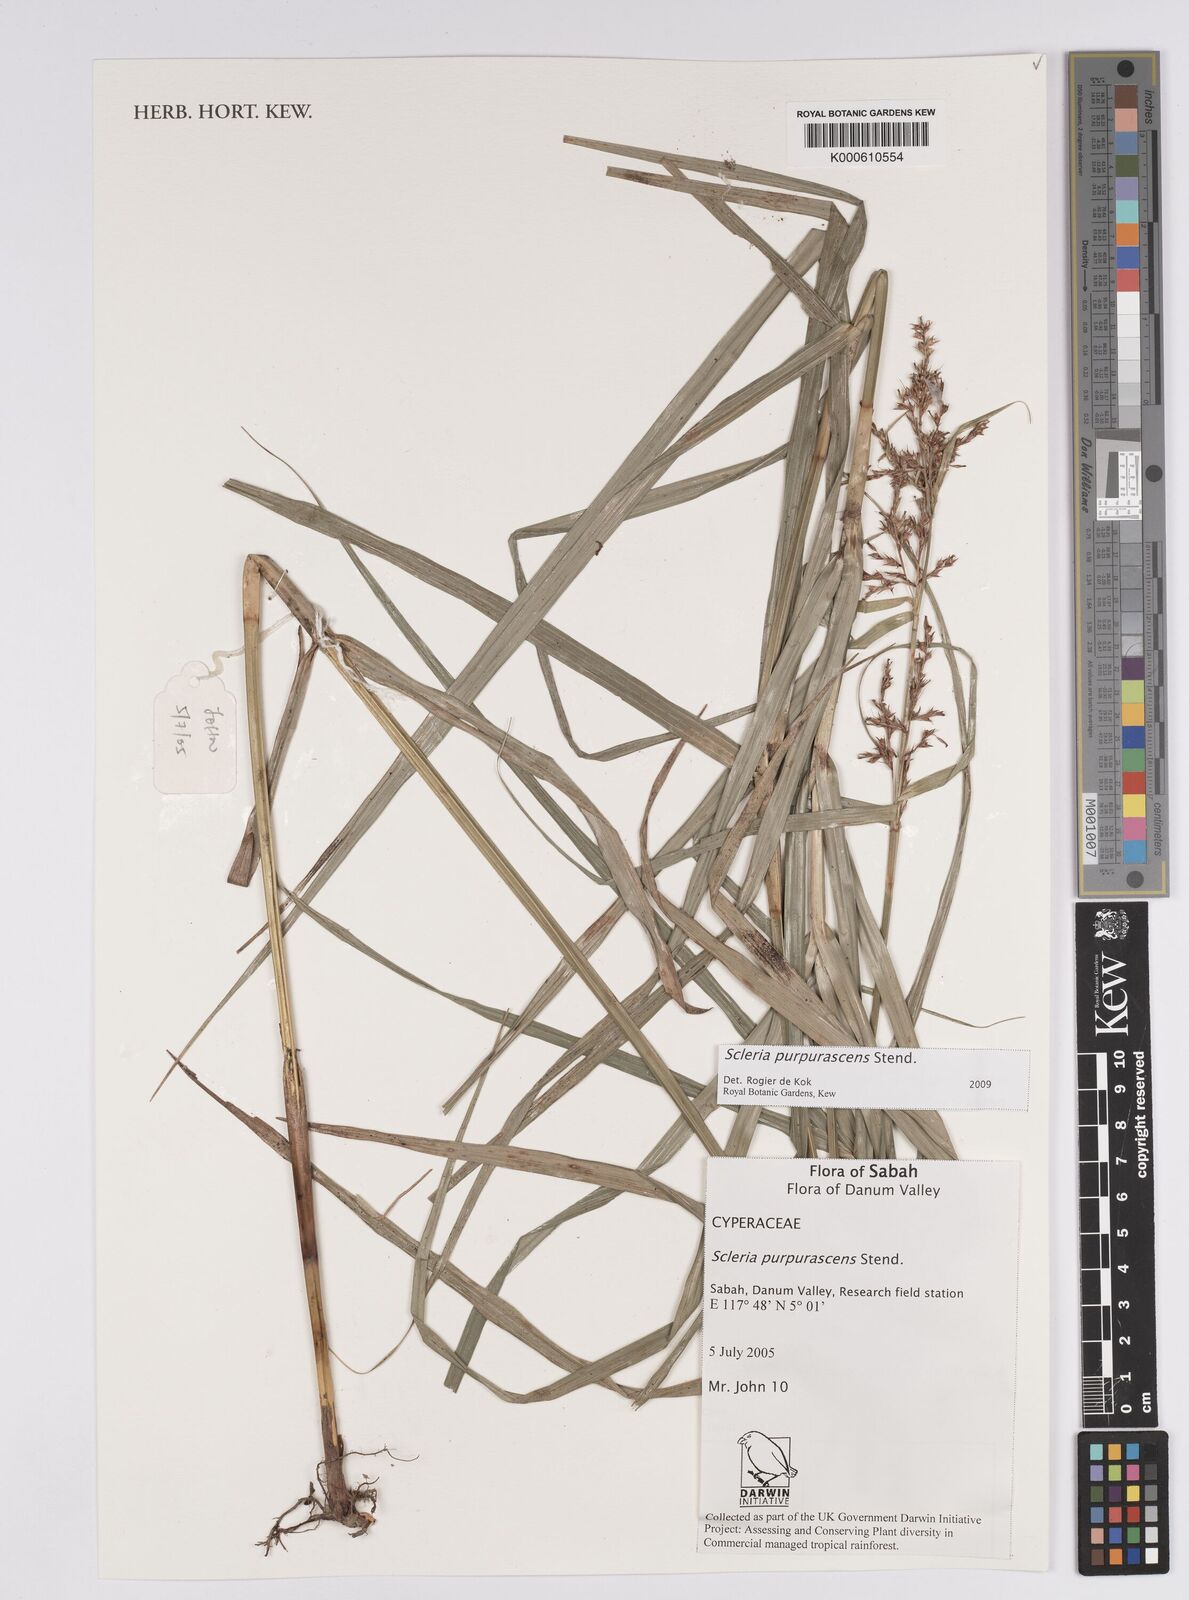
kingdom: Plantae
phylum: Tracheophyta
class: Liliopsida
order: Poales
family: Cyperaceae
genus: Scleria
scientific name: Scleria purpurascens
